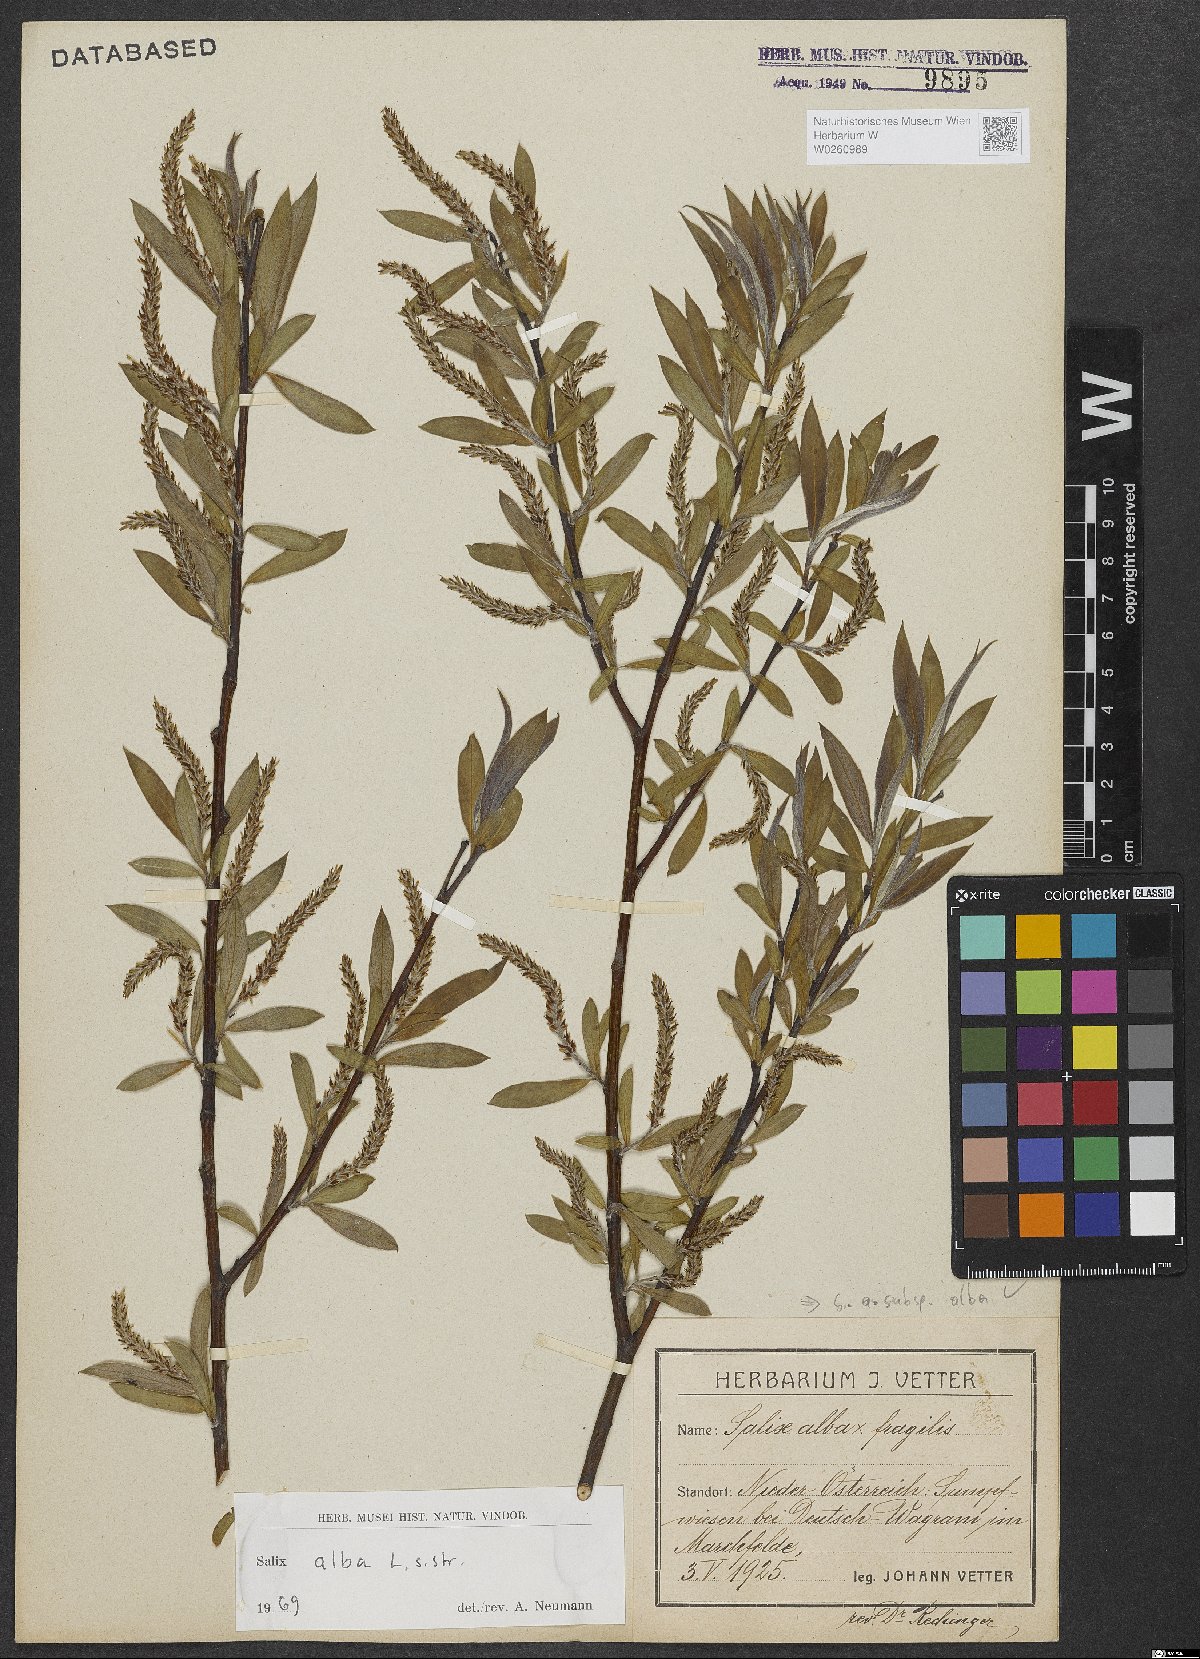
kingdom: Plantae
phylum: Tracheophyta
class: Magnoliopsida
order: Malpighiales
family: Salicaceae
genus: Salix
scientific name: Salix alba
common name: White willow
